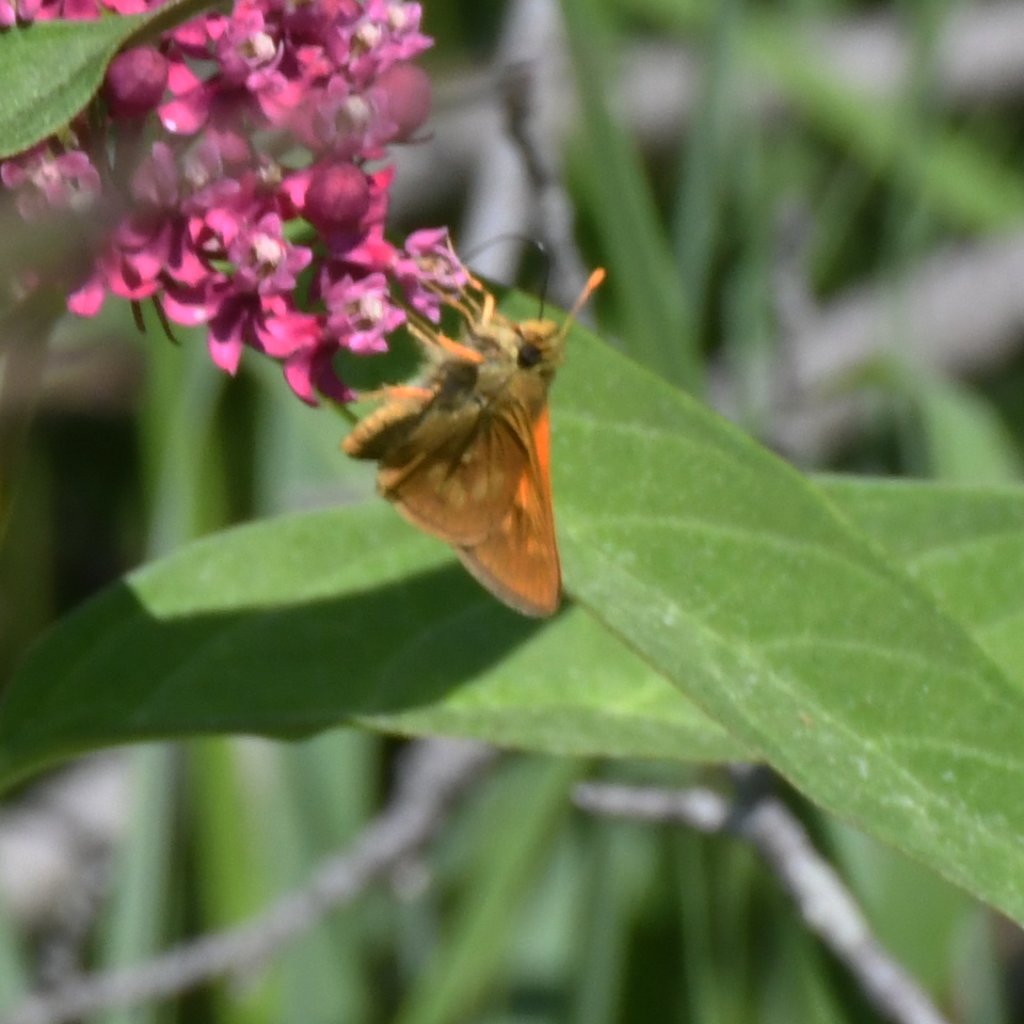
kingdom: Animalia
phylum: Arthropoda
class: Insecta
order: Lepidoptera
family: Hesperiidae
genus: Polites
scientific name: Polites
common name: Long Dash Skipper
